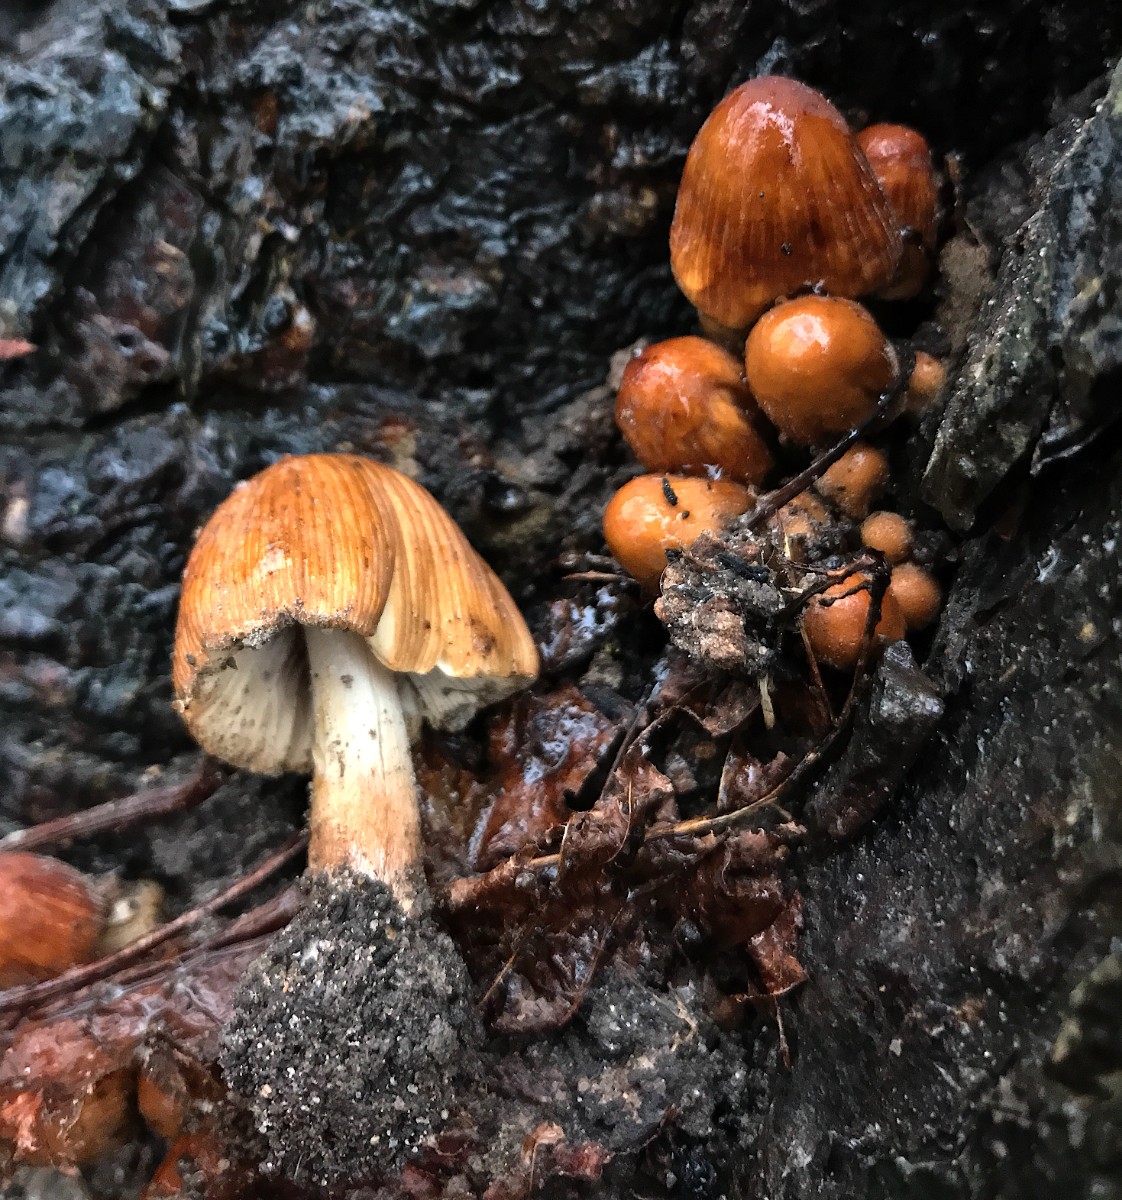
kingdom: Fungi
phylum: Basidiomycota
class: Agaricomycetes
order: Agaricales
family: Psathyrellaceae
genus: Coprinellus
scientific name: Coprinellus micaceus
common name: glimmer-blækhat
